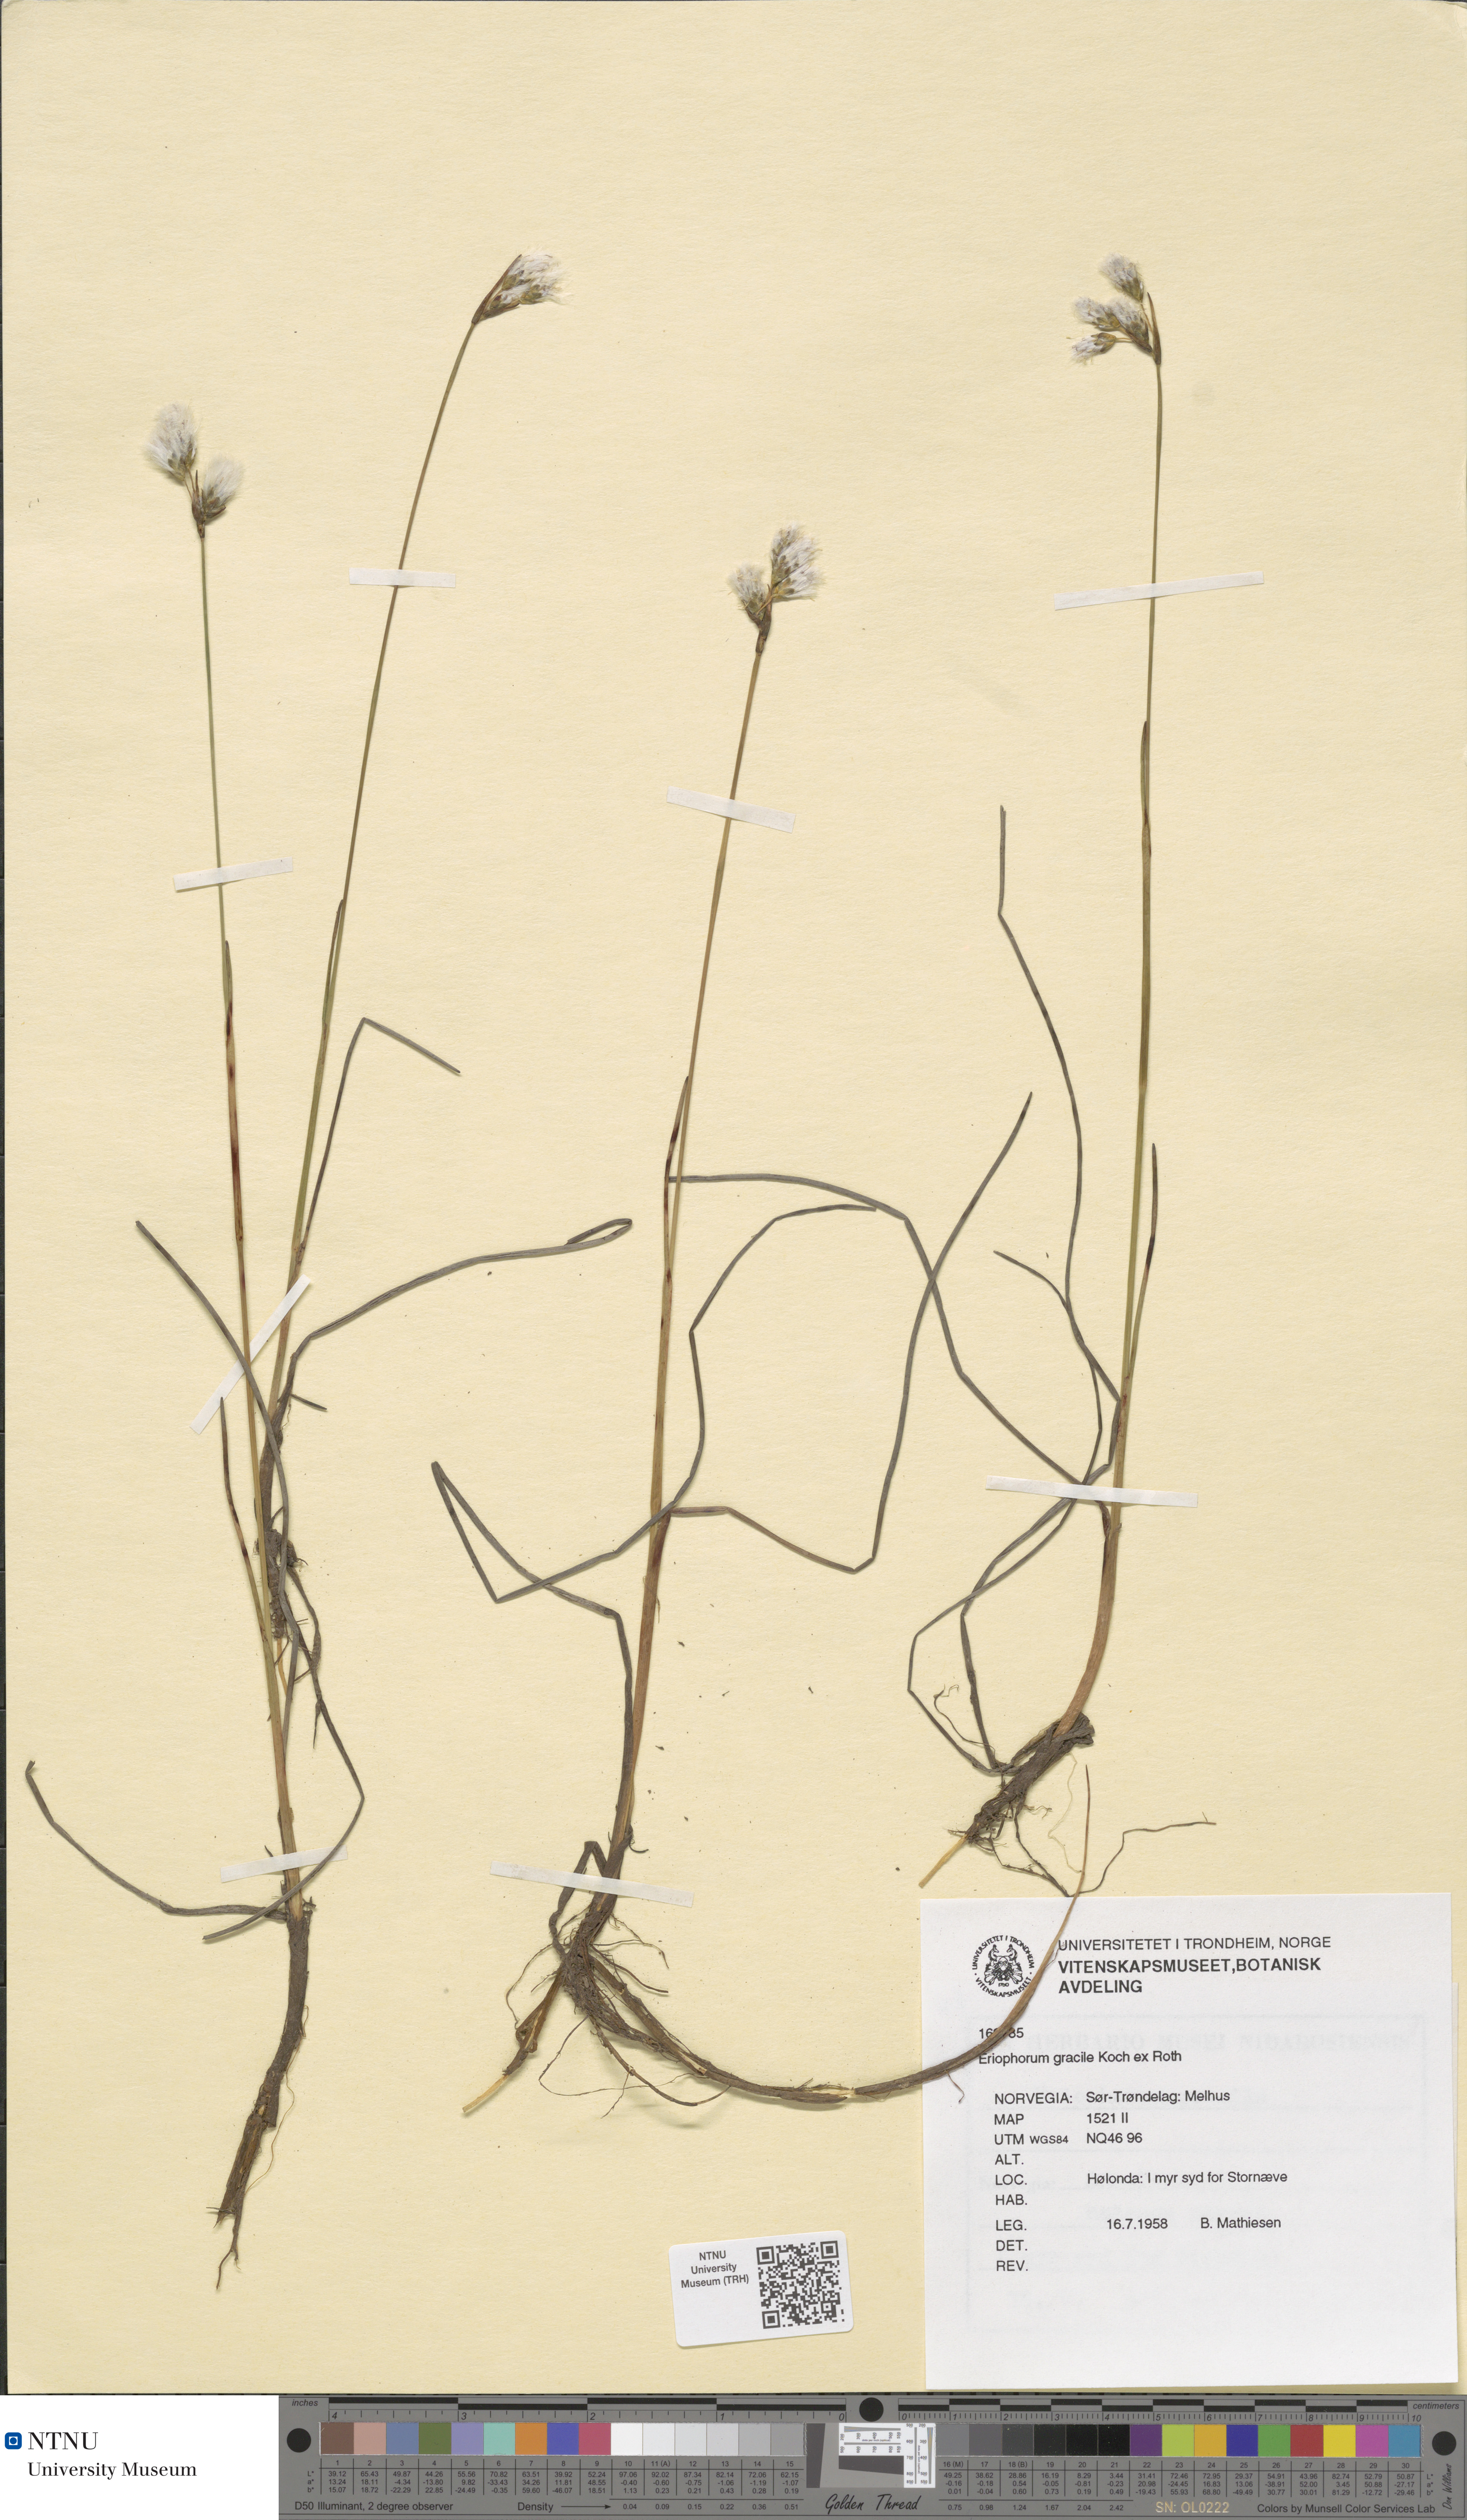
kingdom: Plantae
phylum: Tracheophyta
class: Liliopsida
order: Poales
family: Cyperaceae
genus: Eriophorum
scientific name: Eriophorum gracile
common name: Slender cottongrass
